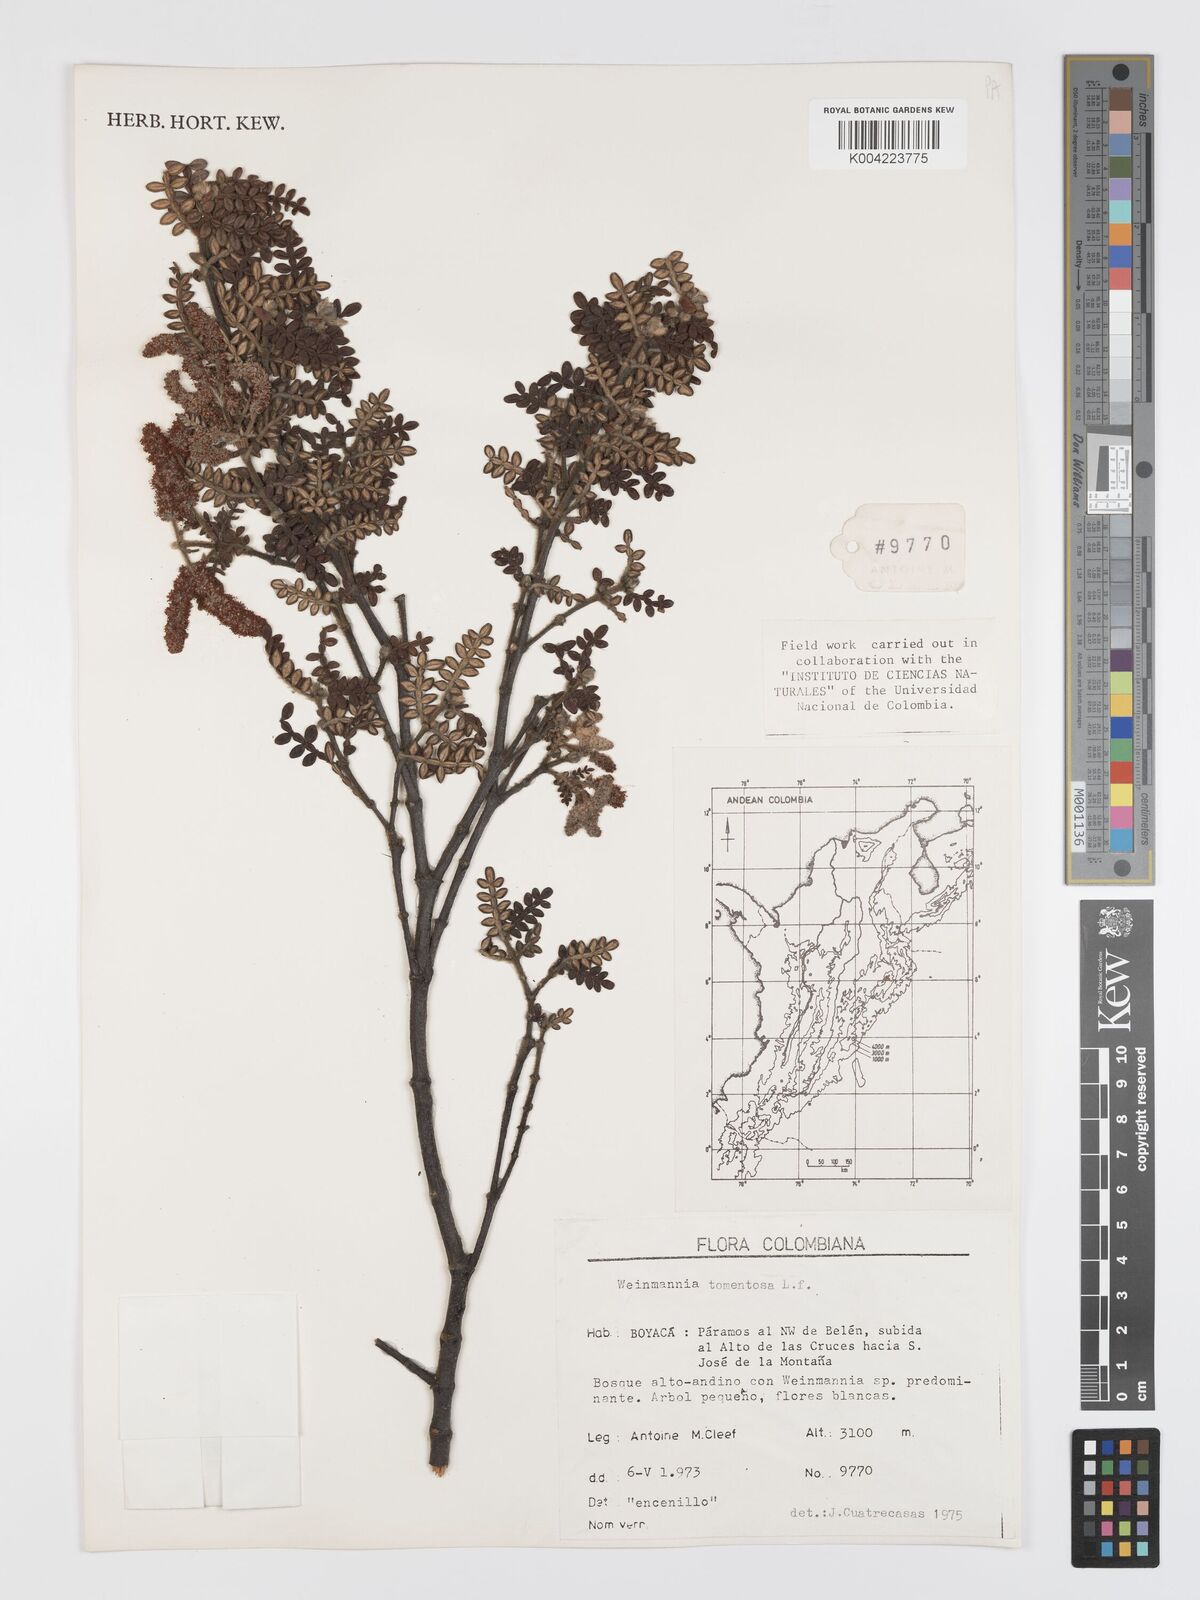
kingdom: Plantae
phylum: Tracheophyta
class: Magnoliopsida
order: Oxalidales
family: Cunoniaceae
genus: Weinmannia
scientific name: Weinmannia tomentosa
